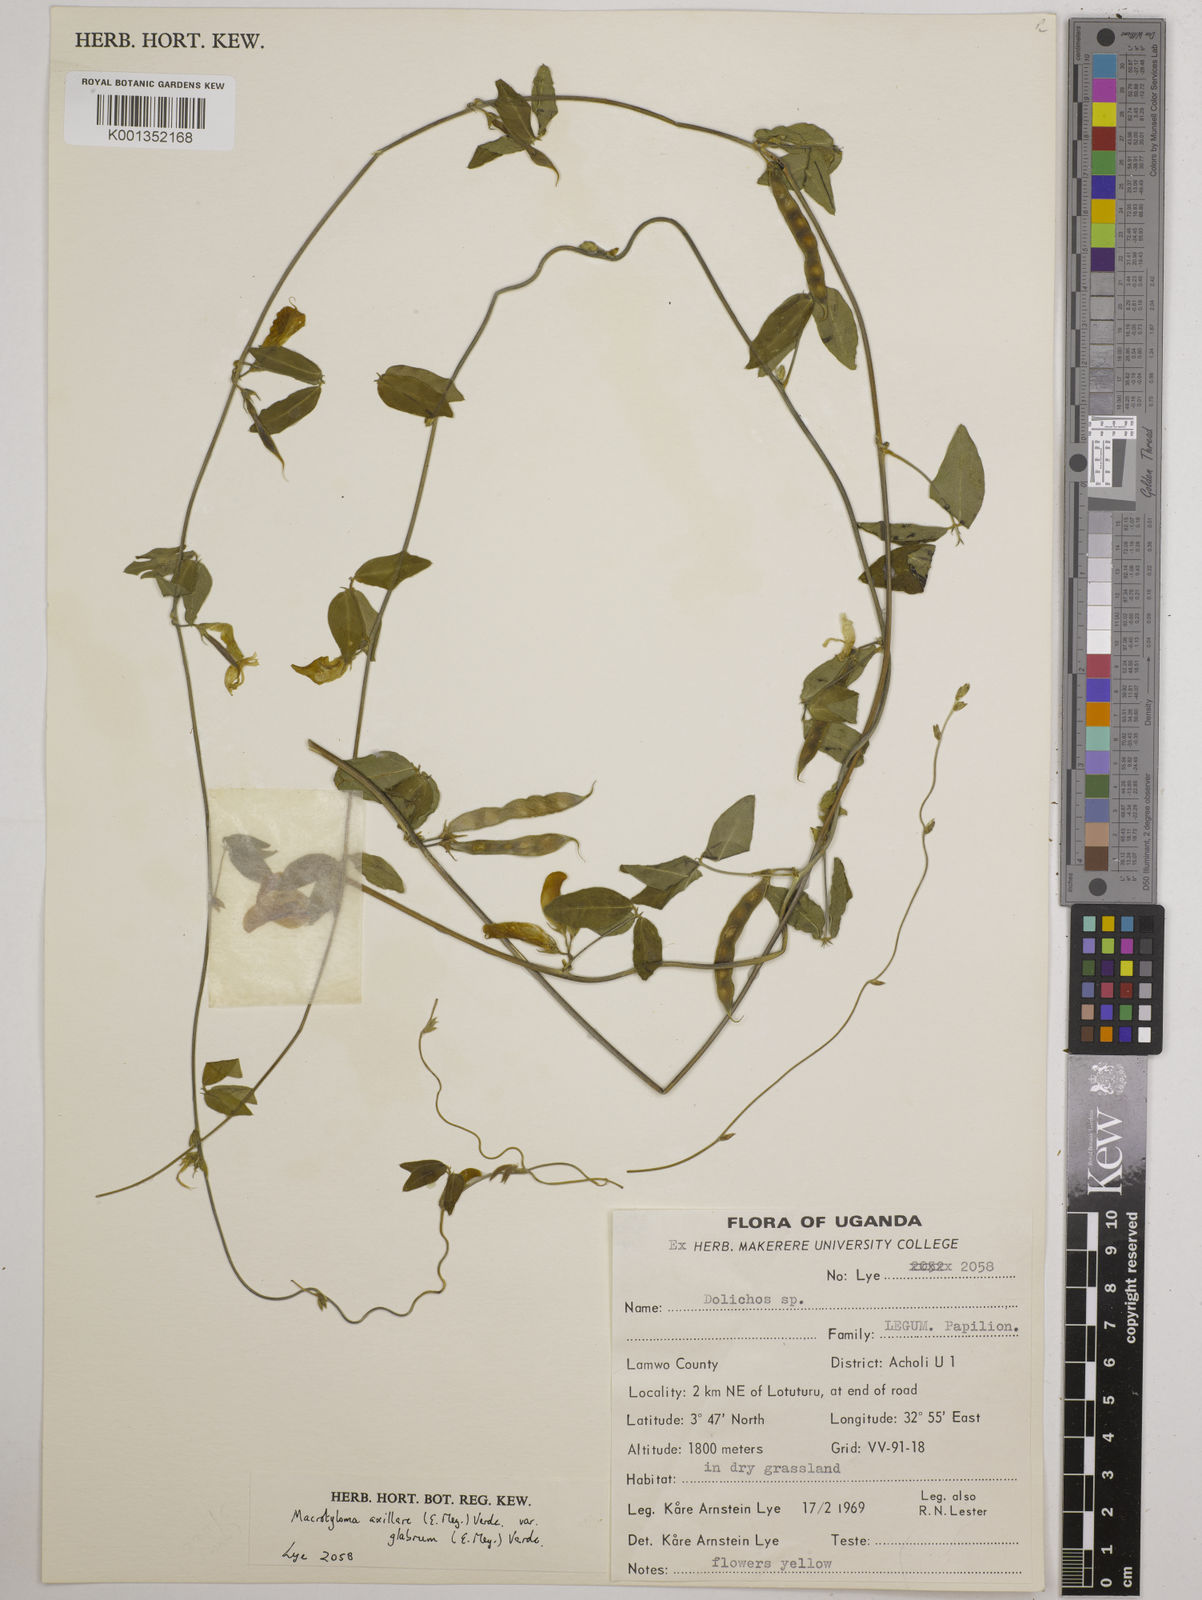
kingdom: Plantae
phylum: Tracheophyta
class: Magnoliopsida
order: Fabales
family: Fabaceae
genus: Macrotyloma
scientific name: Macrotyloma
